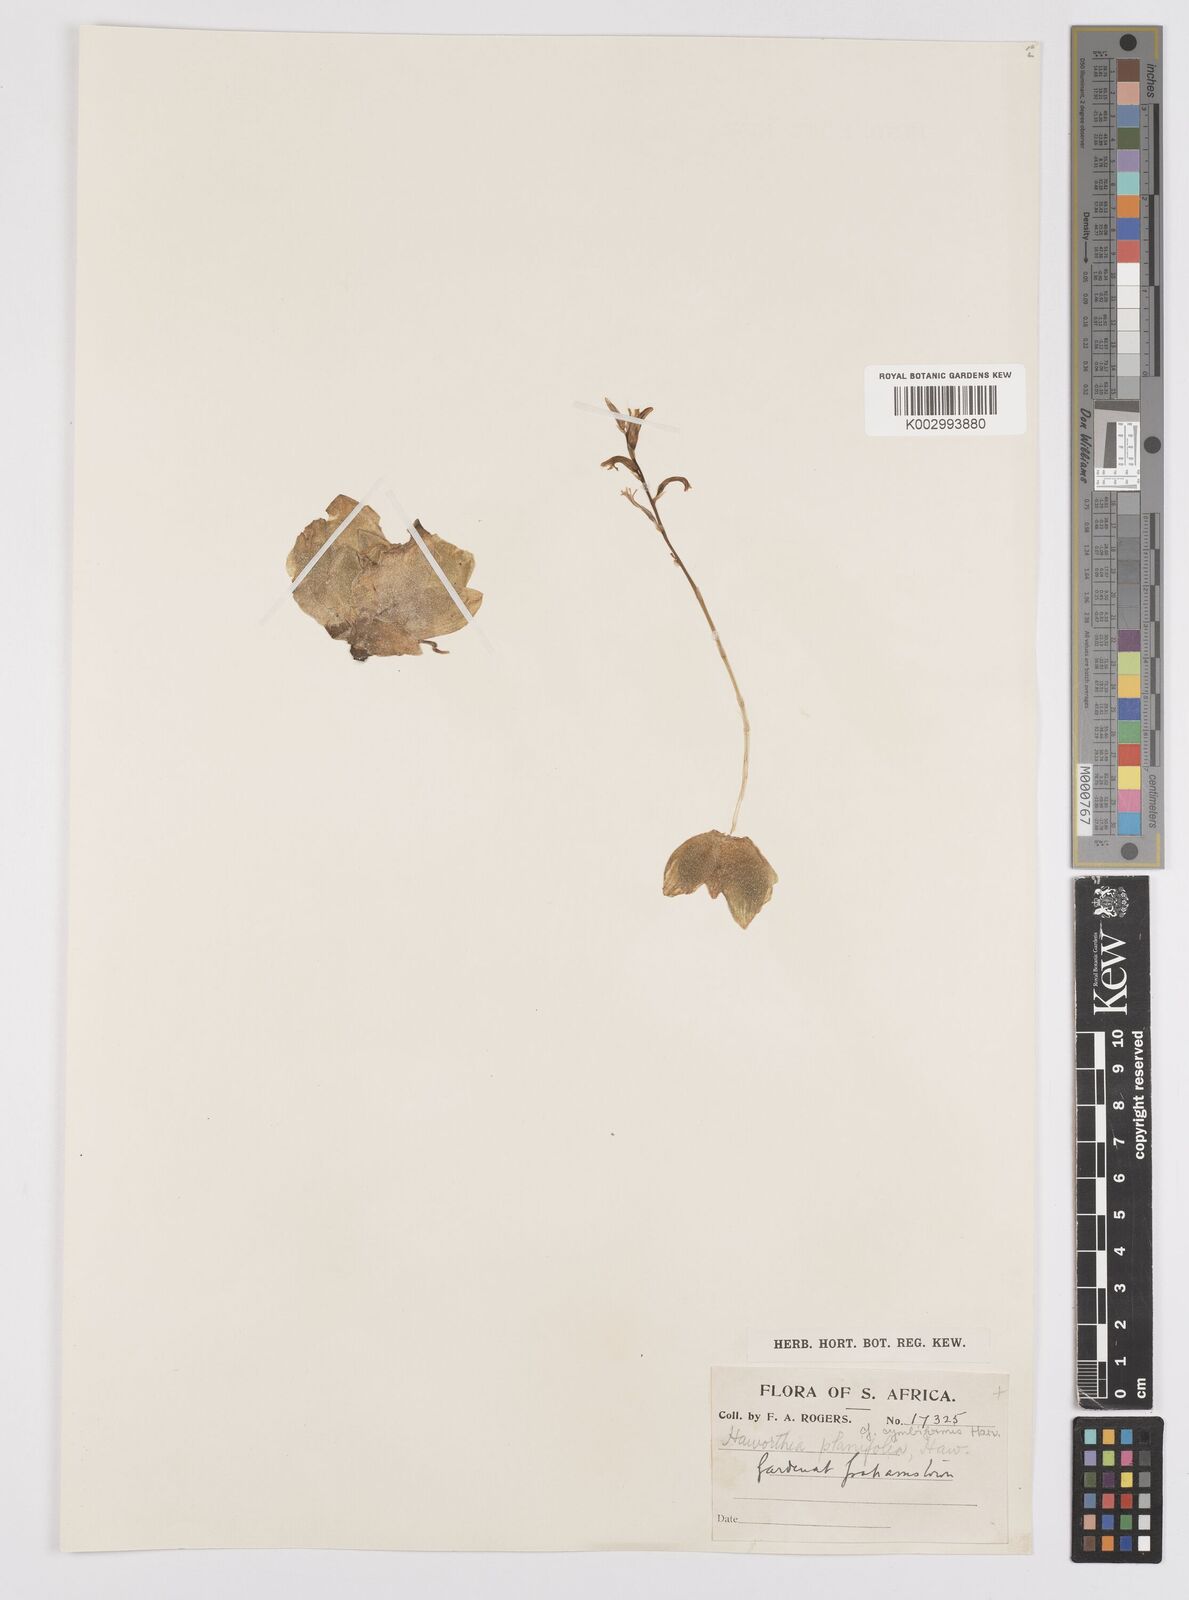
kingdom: Plantae
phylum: Tracheophyta
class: Liliopsida
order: Asparagales
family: Asphodelaceae
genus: Haworthia
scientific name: Haworthia cymbiformis
